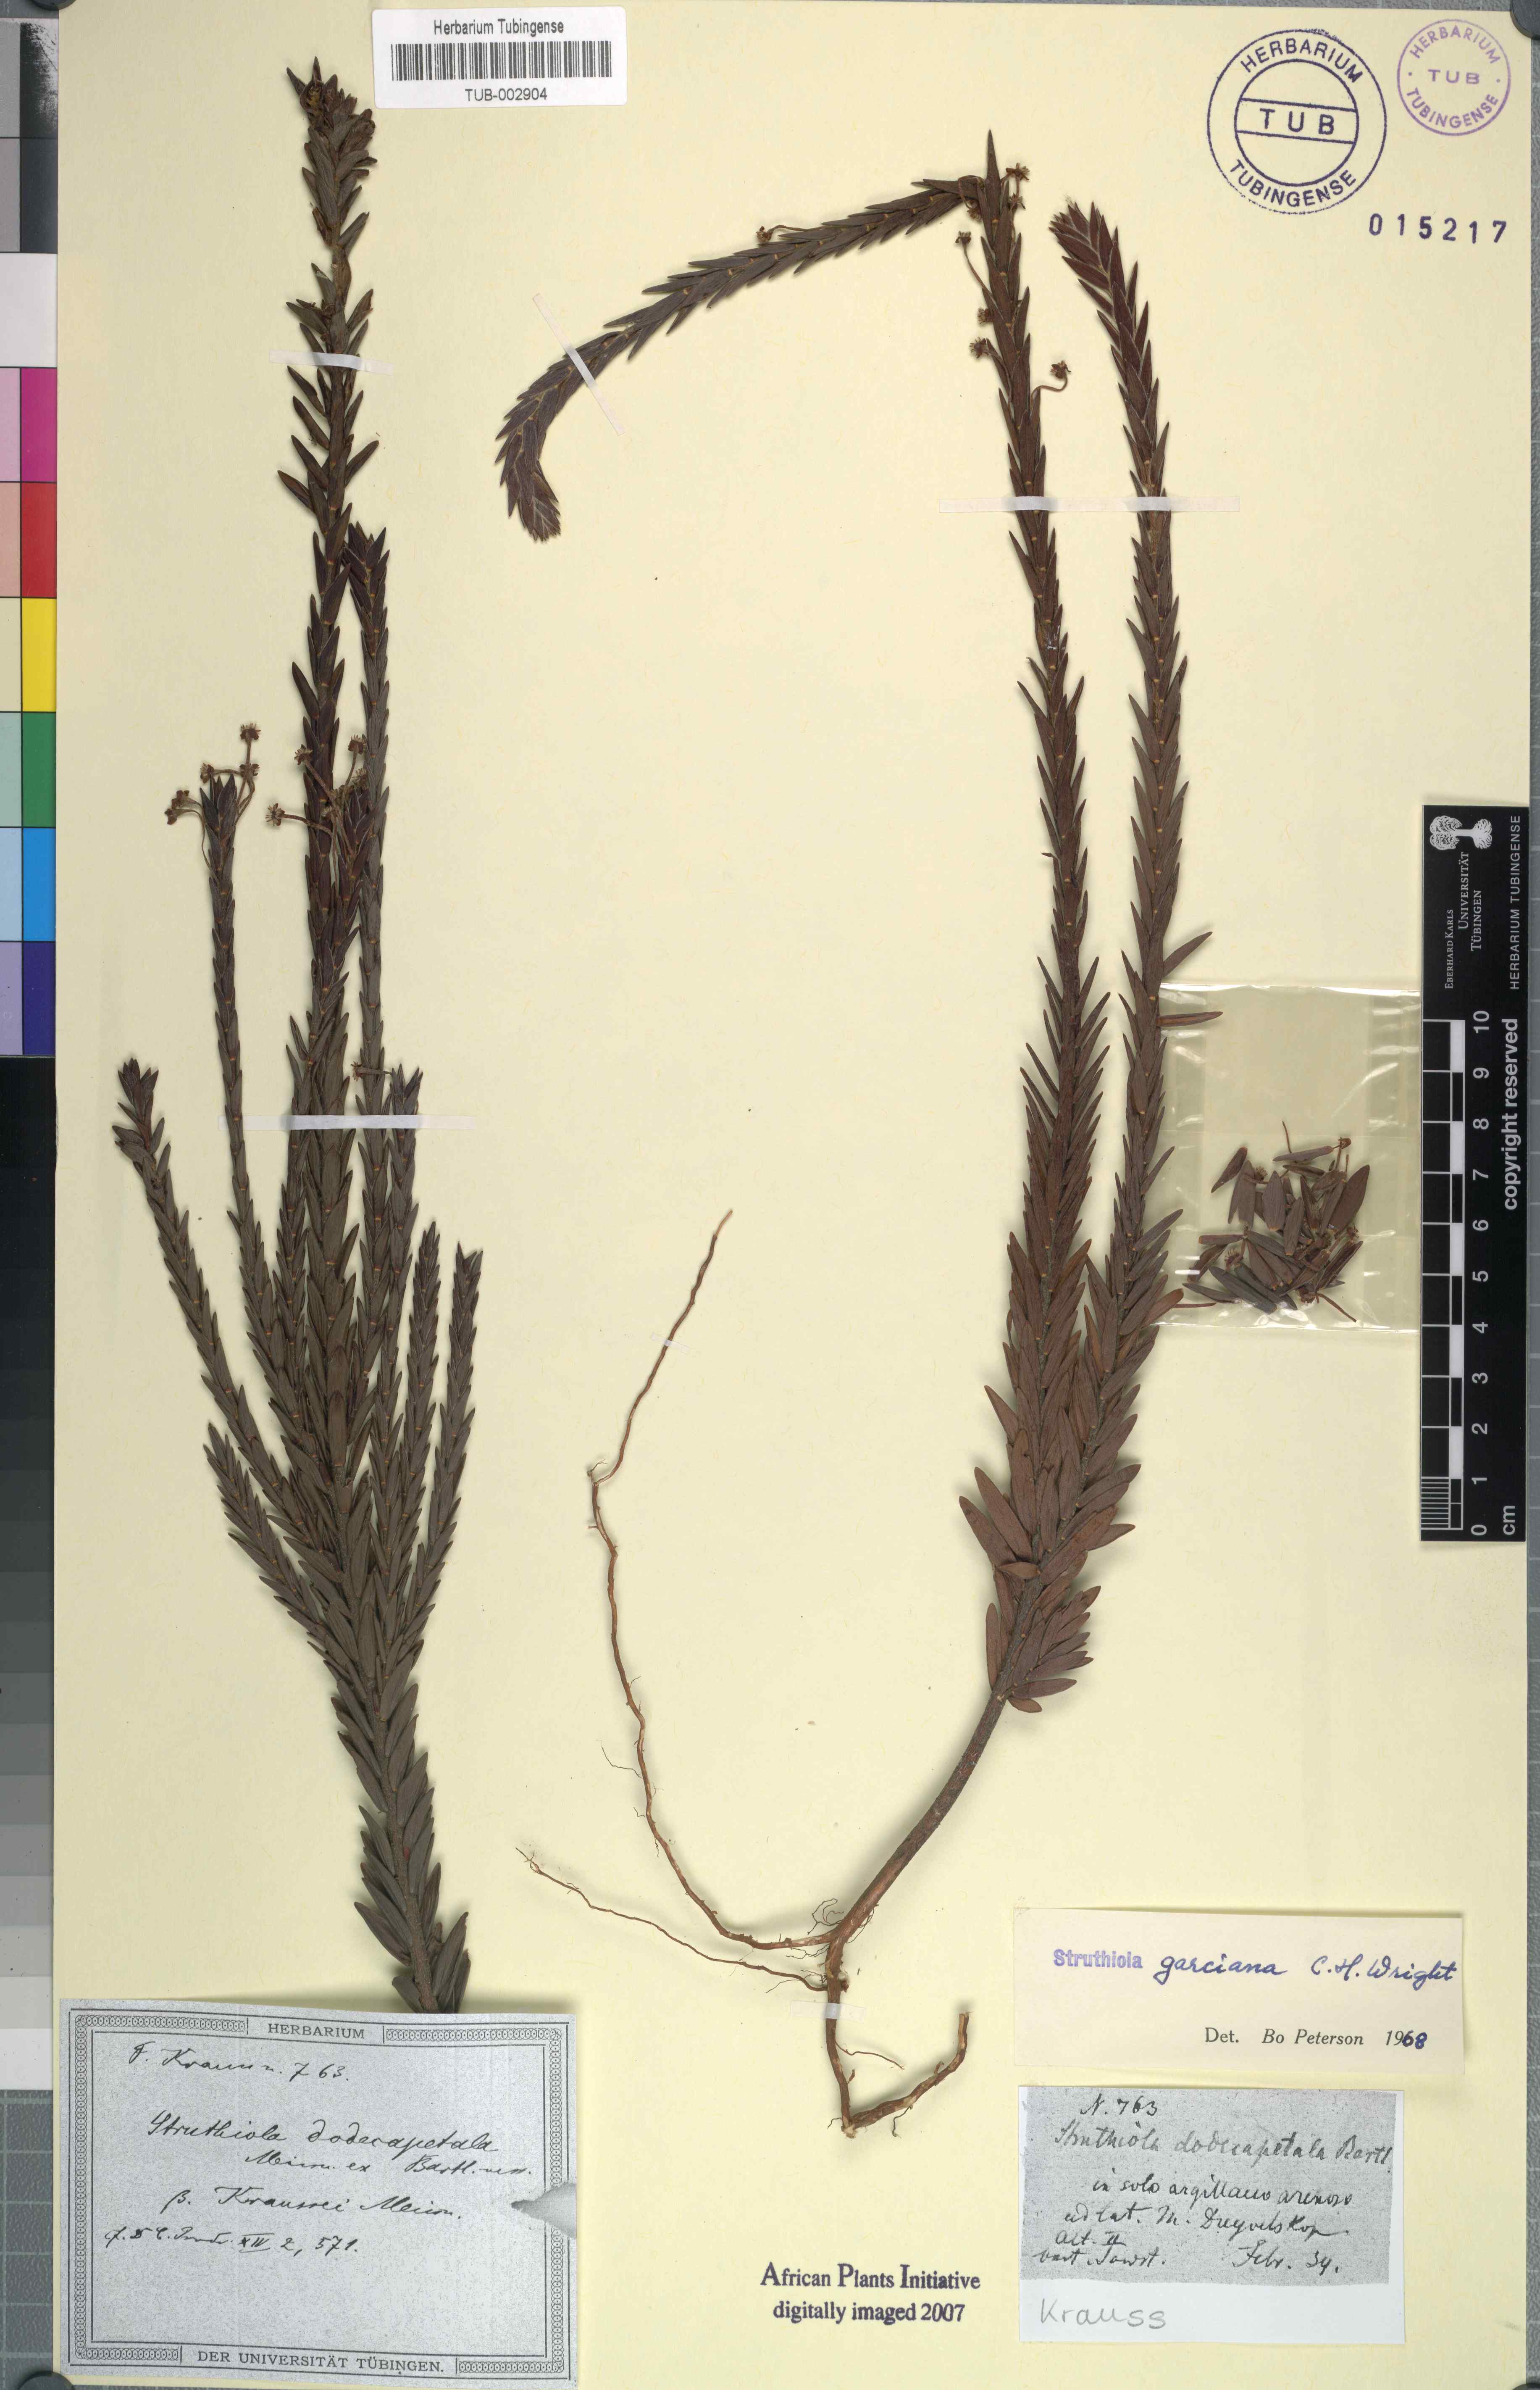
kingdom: Plantae
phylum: Tracheophyta
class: Magnoliopsida
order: Malvales
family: Thymelaeaceae
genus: Struthiola
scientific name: Struthiola garciana
